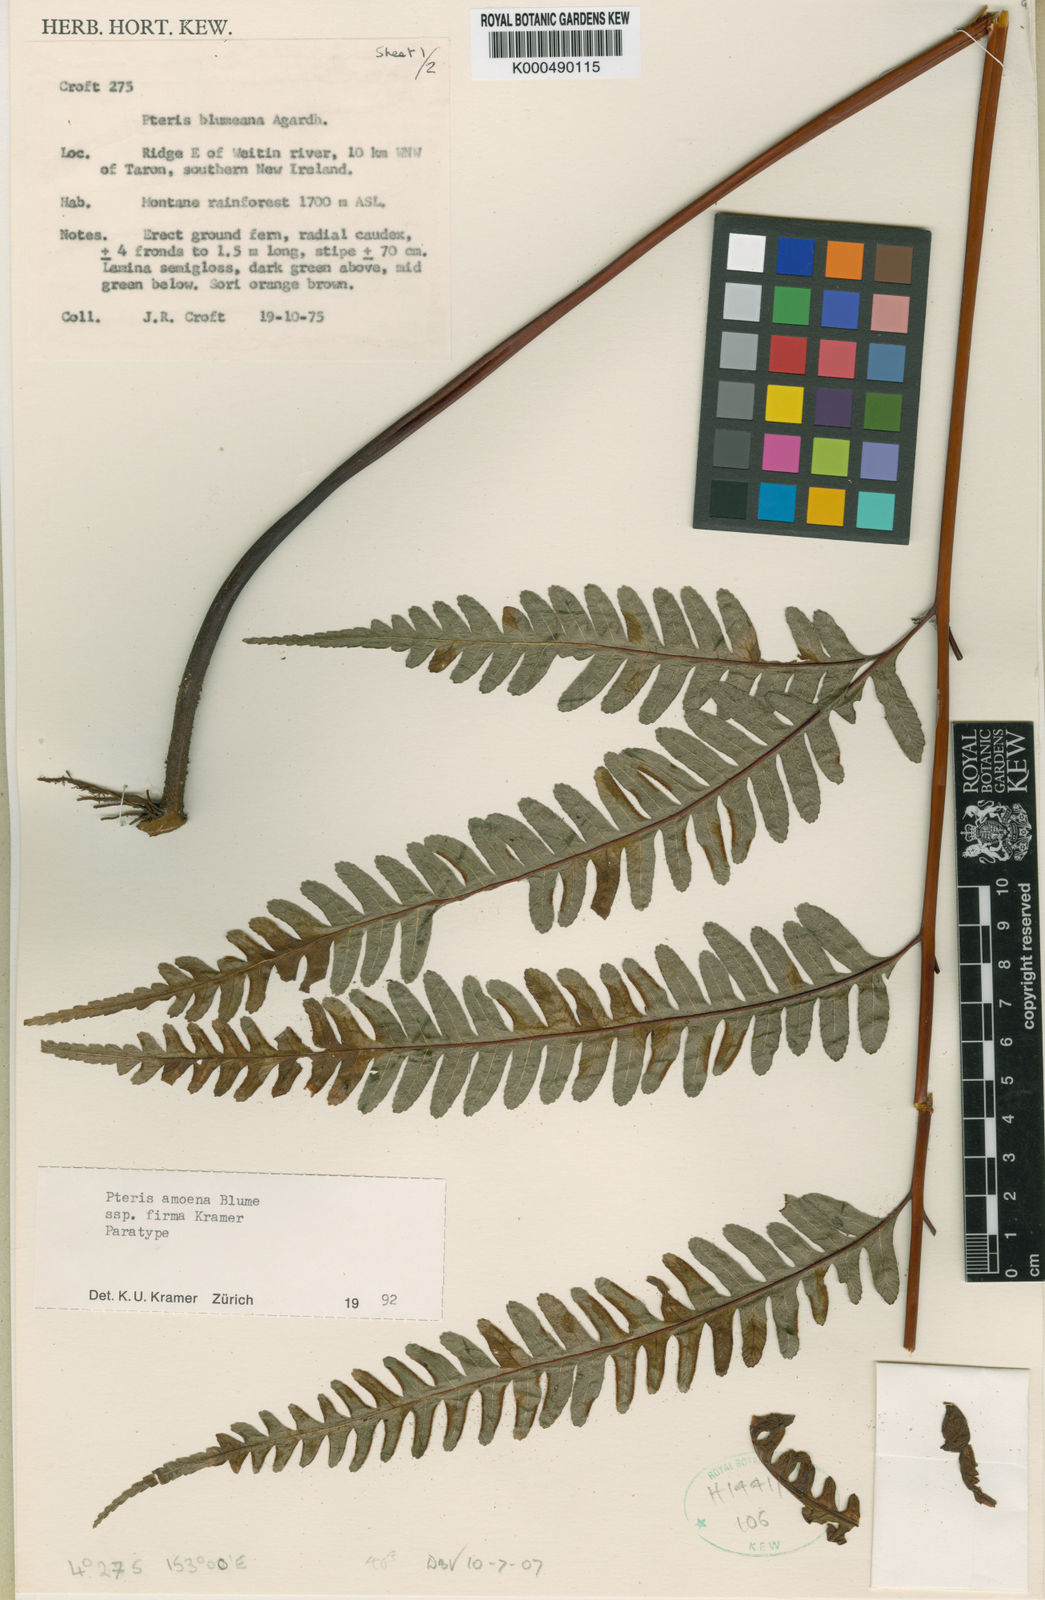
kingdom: Plantae
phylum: Tracheophyta
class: Polypodiopsida
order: Polypodiales
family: Pteridaceae
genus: Pteris
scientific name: Pteris amoena
